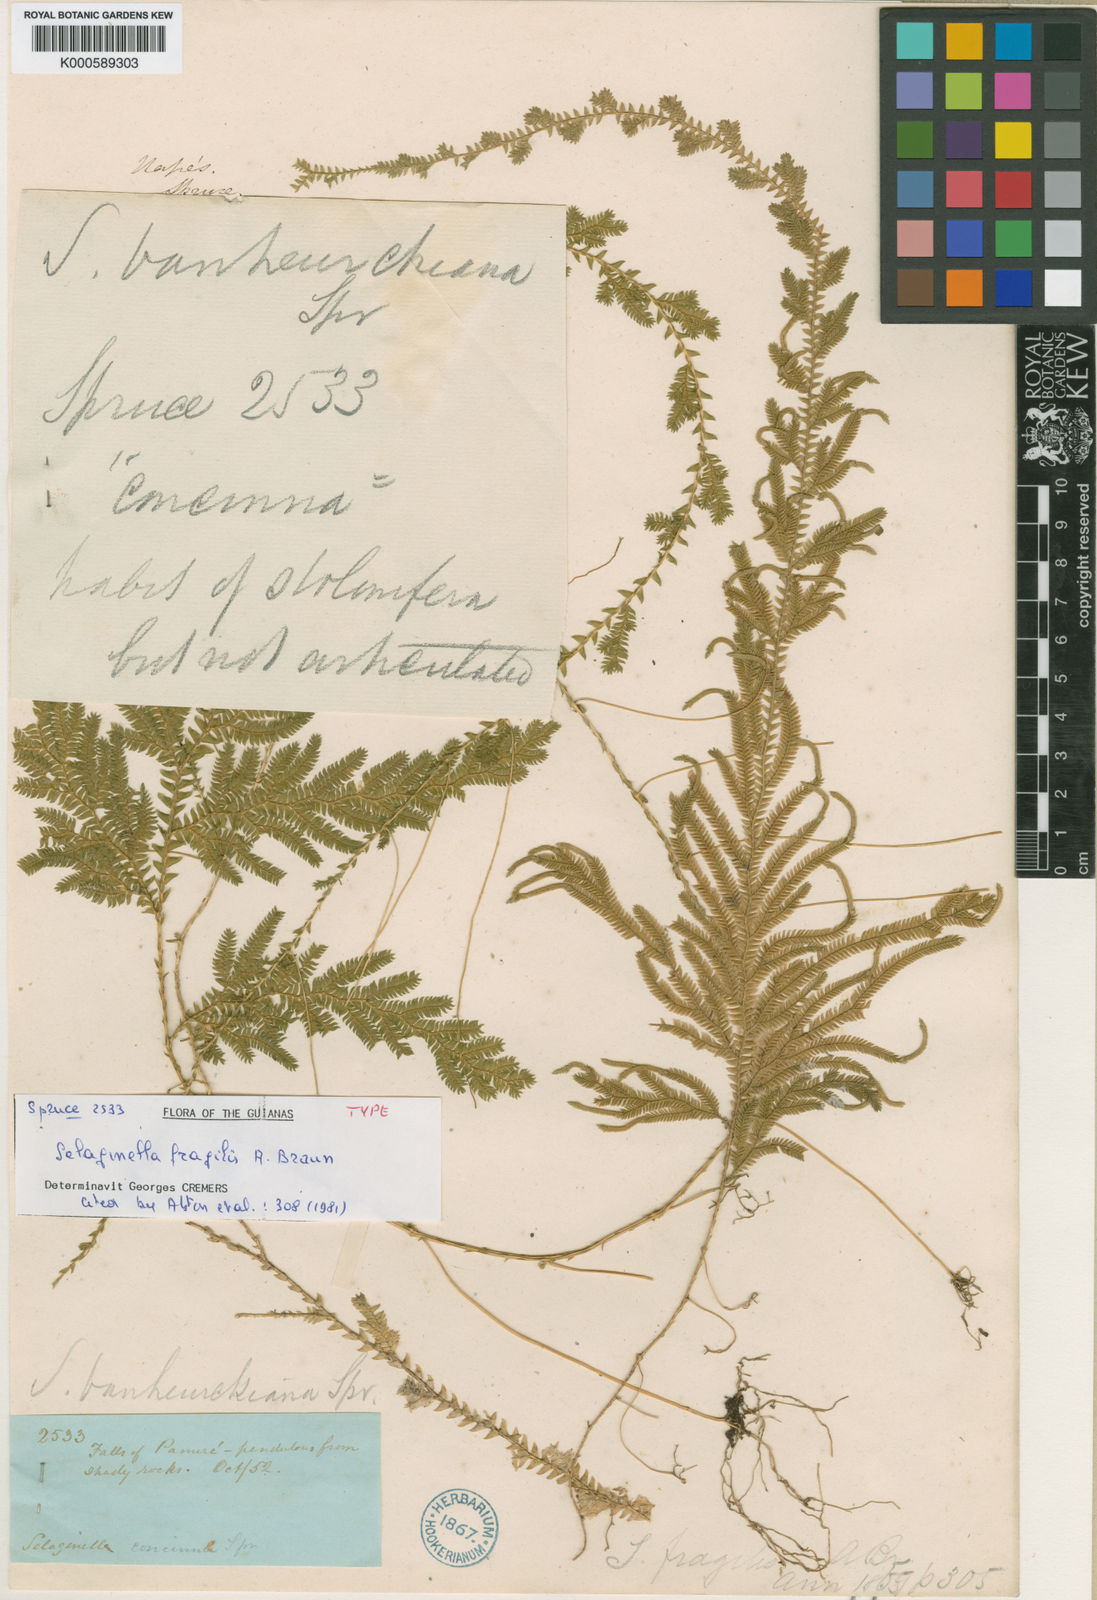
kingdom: Plantae
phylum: Tracheophyta
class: Lycopodiopsida
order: Selaginellales
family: Selaginellaceae
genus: Selaginella
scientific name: Selaginella
